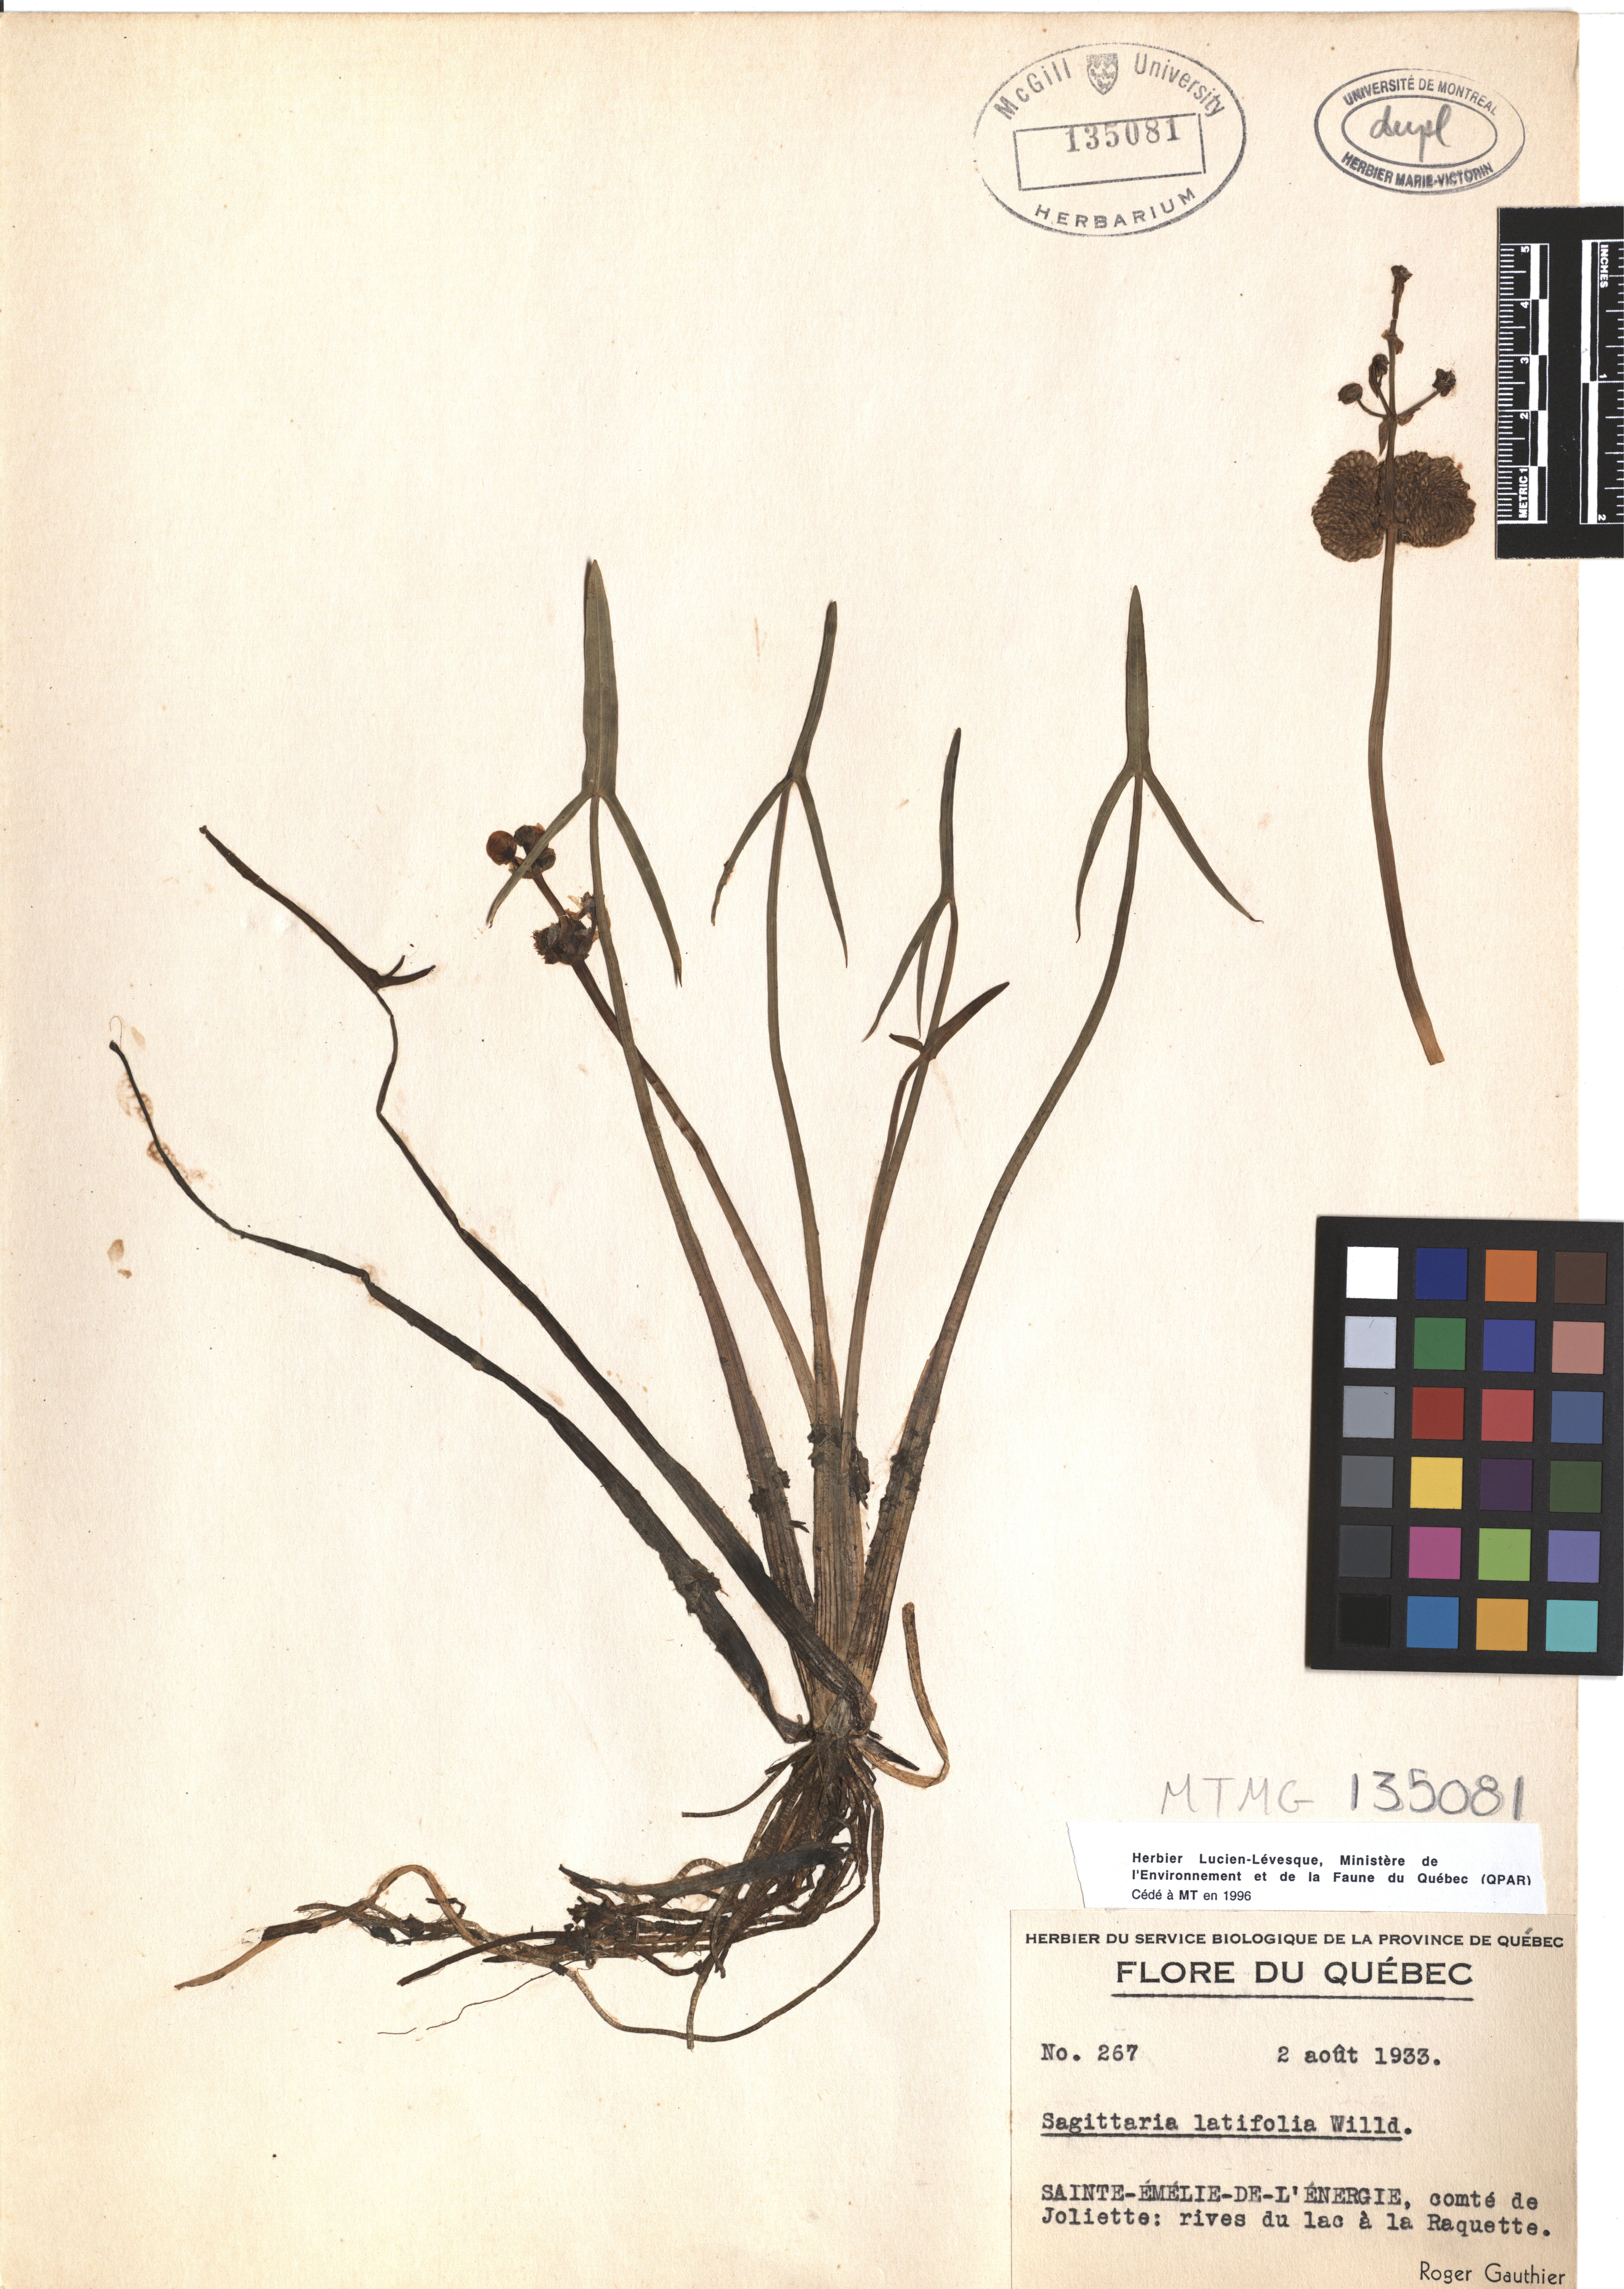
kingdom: Plantae
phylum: Tracheophyta
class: Liliopsida
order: Alismatales
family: Alismataceae
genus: Sagittaria
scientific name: Sagittaria latifolia
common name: Duck-potato
